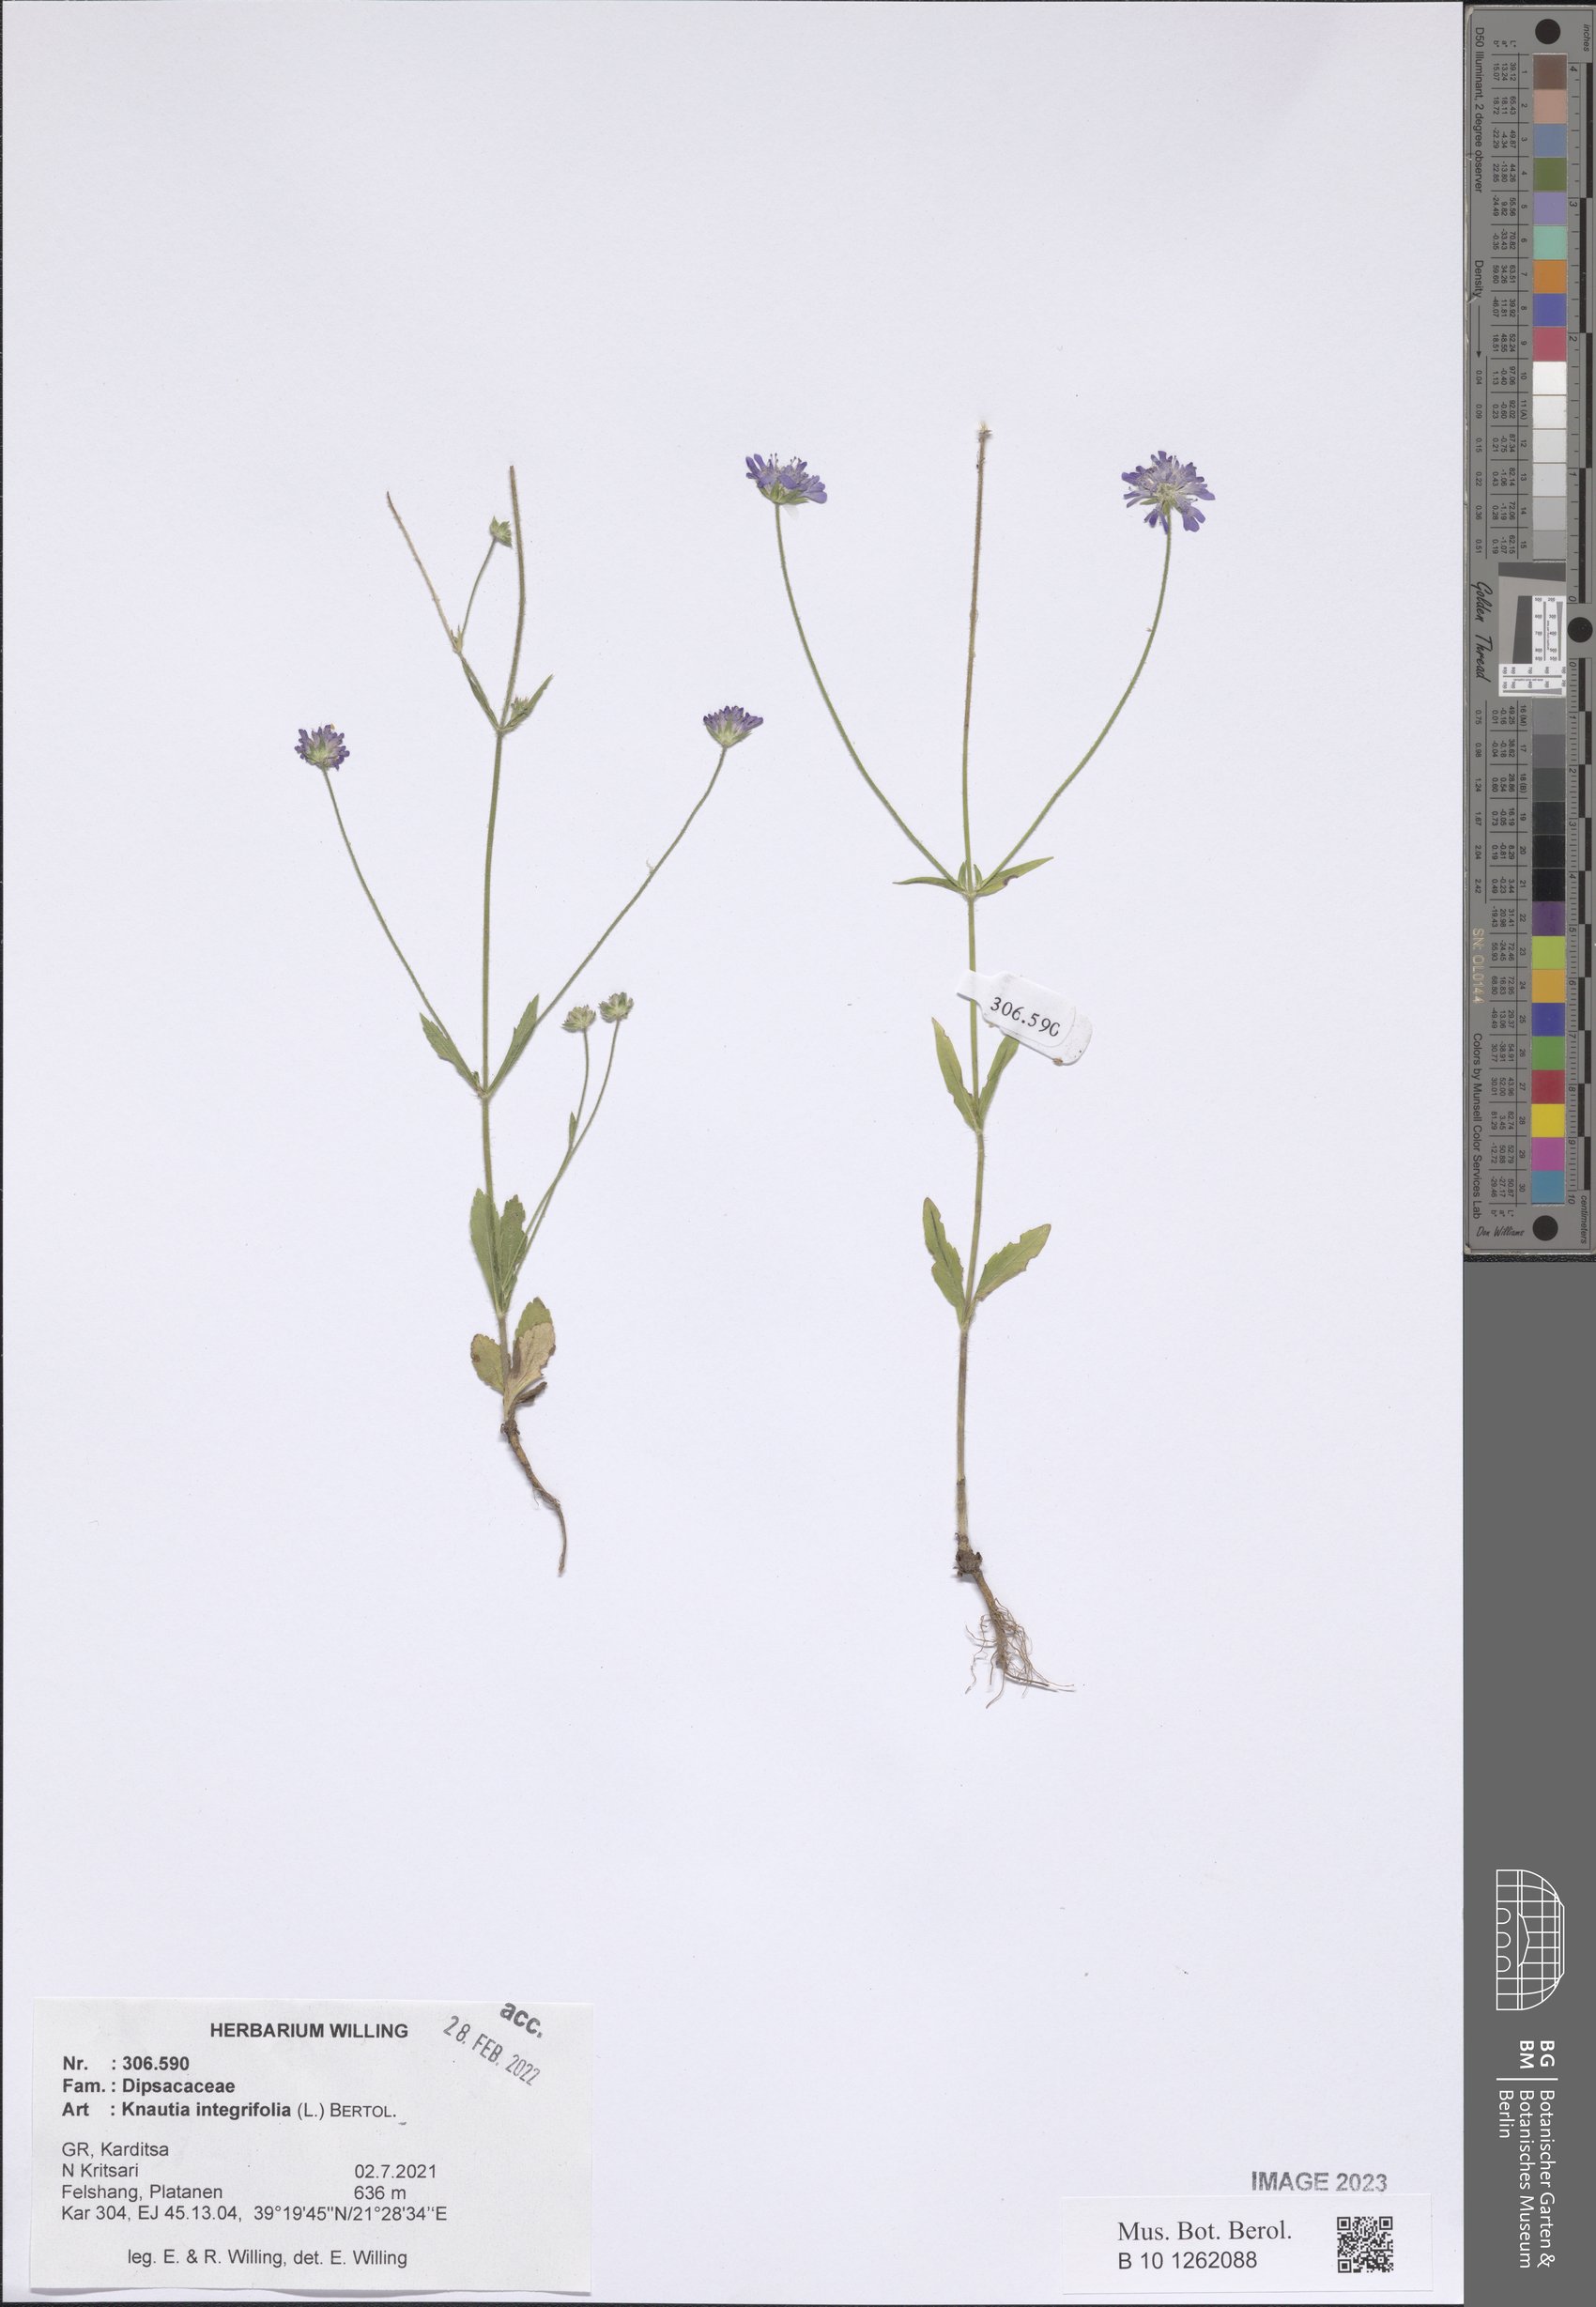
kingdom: Plantae
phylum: Tracheophyta
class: Magnoliopsida
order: Dipsacales
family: Caprifoliaceae
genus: Knautia
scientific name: Knautia integrifolia
